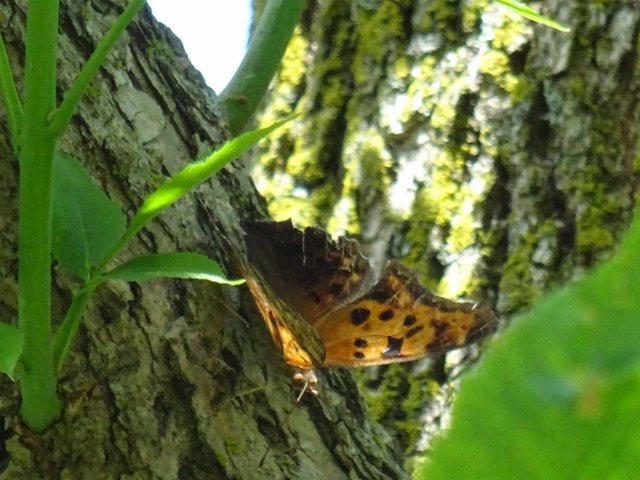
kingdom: Animalia
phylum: Arthropoda
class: Insecta
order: Lepidoptera
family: Nymphalidae
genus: Polygonia
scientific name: Polygonia comma
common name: Eastern Comma
